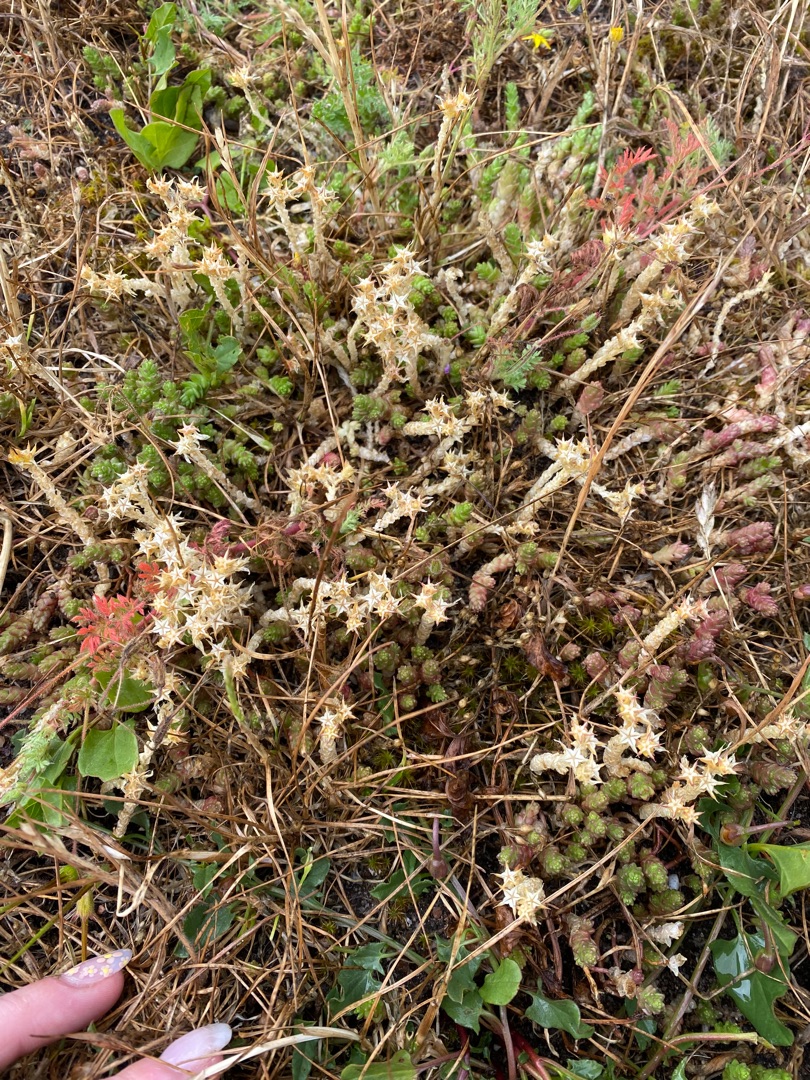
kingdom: Plantae
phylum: Tracheophyta
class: Magnoliopsida
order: Saxifragales
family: Crassulaceae
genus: Sedum
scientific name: Sedum acre
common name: Bidende stenurt
